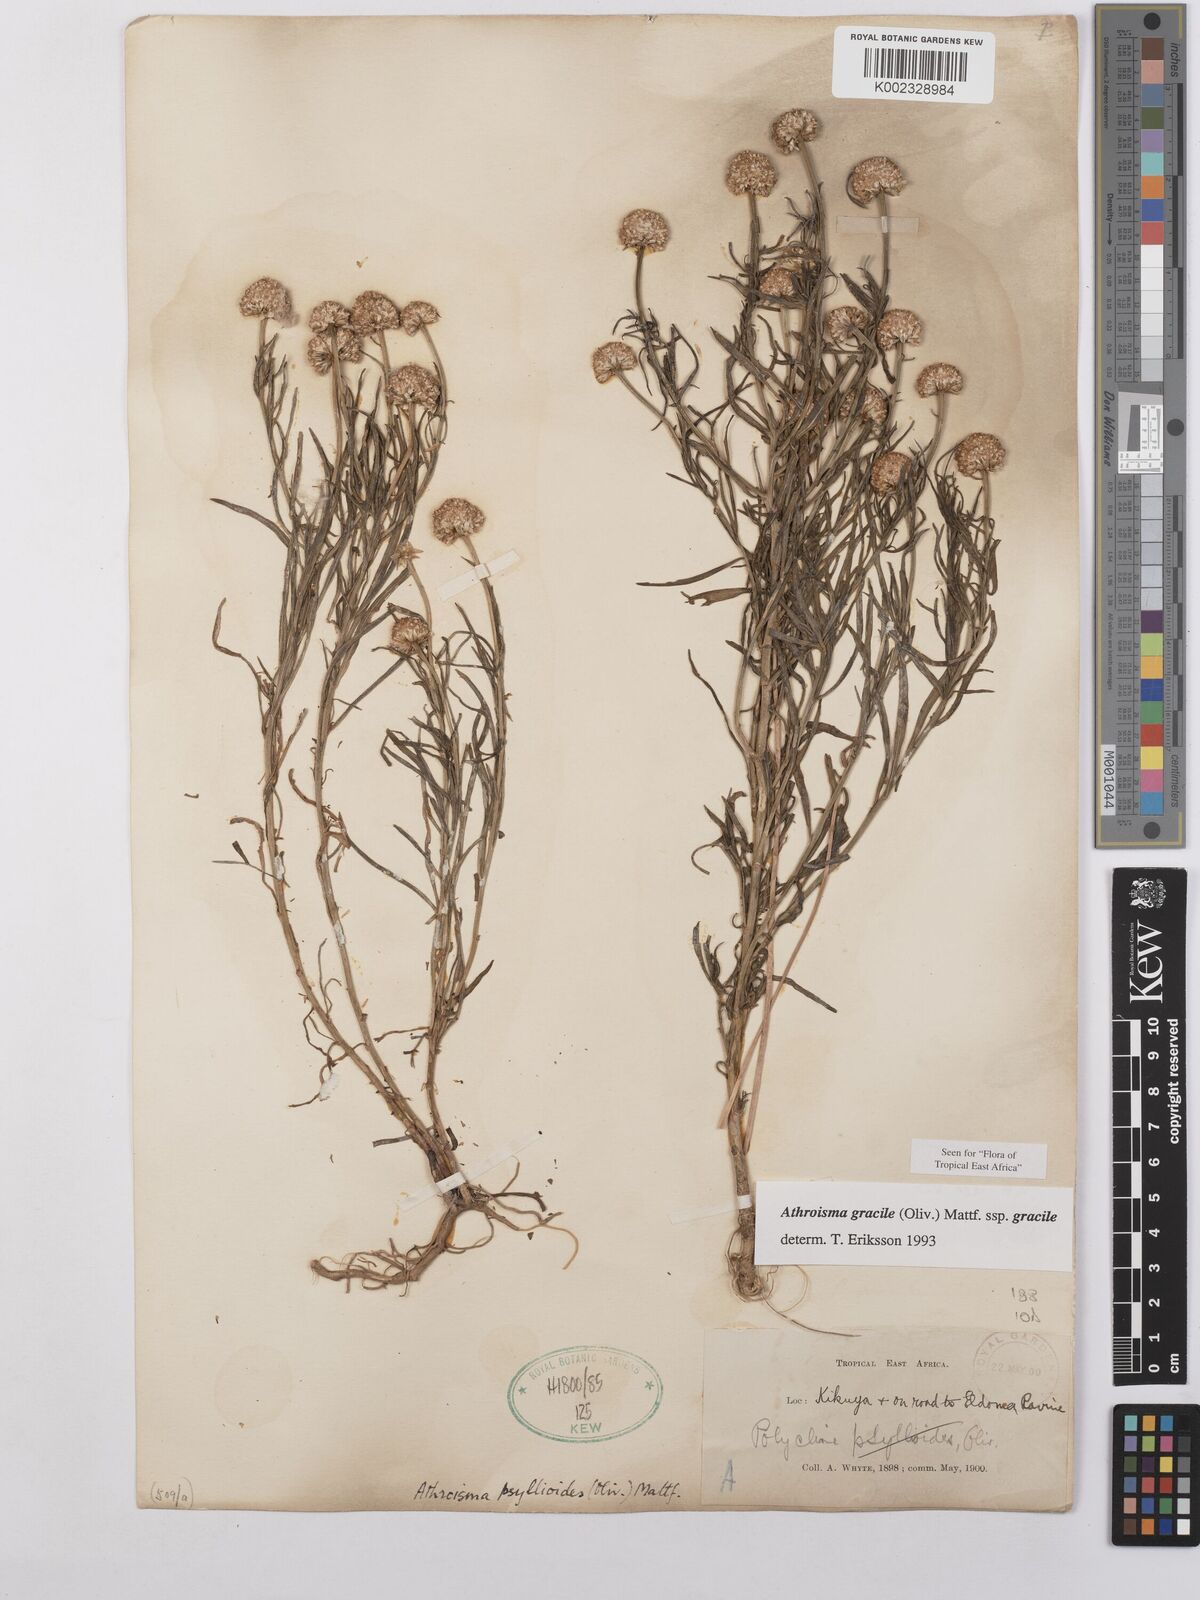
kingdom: Plantae
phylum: Tracheophyta
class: Magnoliopsida
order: Asterales
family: Asteraceae
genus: Athroisma
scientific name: Athroisma gracile
